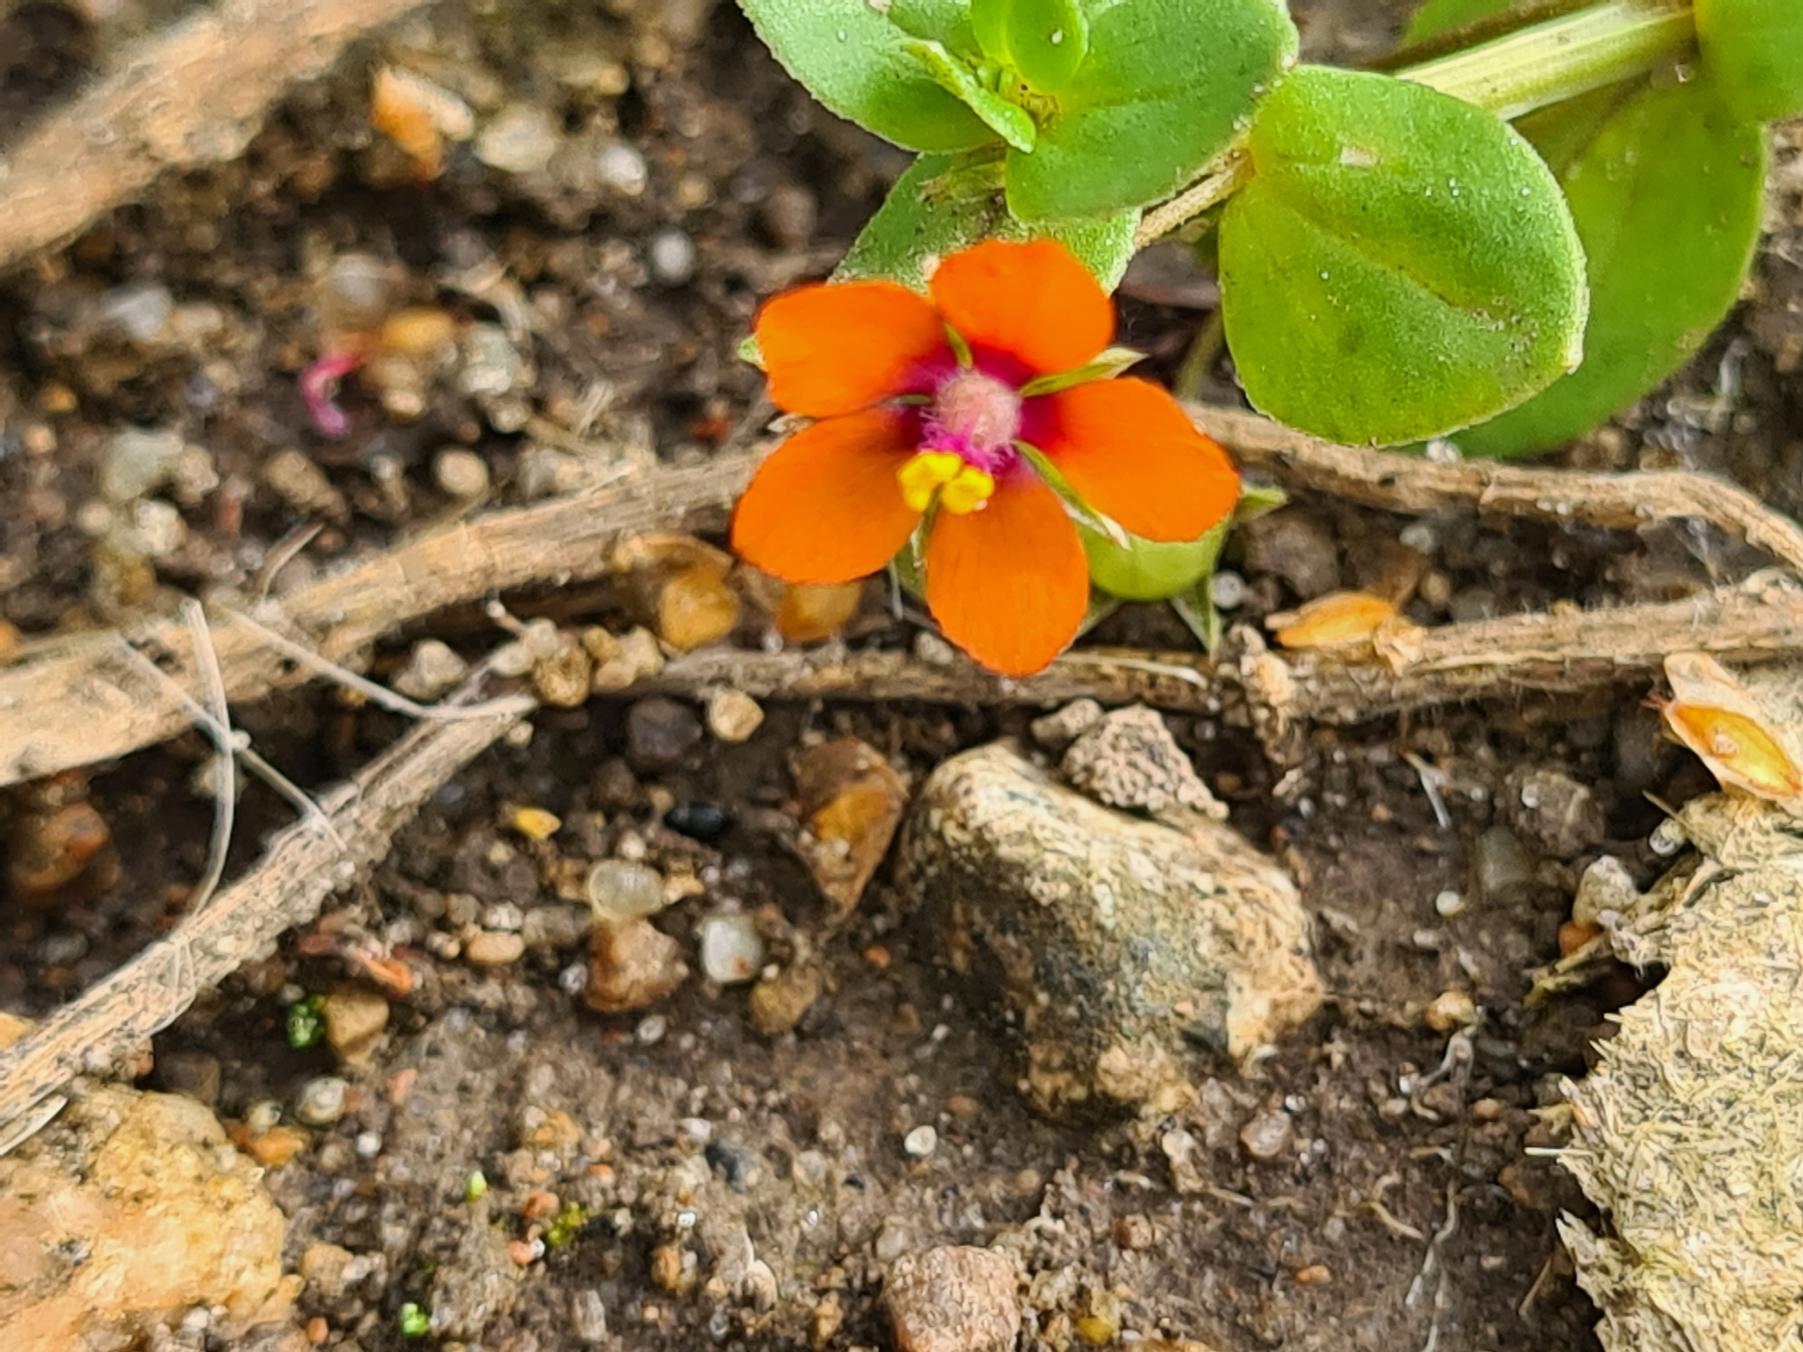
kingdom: Plantae
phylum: Tracheophyta
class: Magnoliopsida
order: Ericales
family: Primulaceae
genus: Lysimachia
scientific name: Lysimachia arvensis
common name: Rød arve
